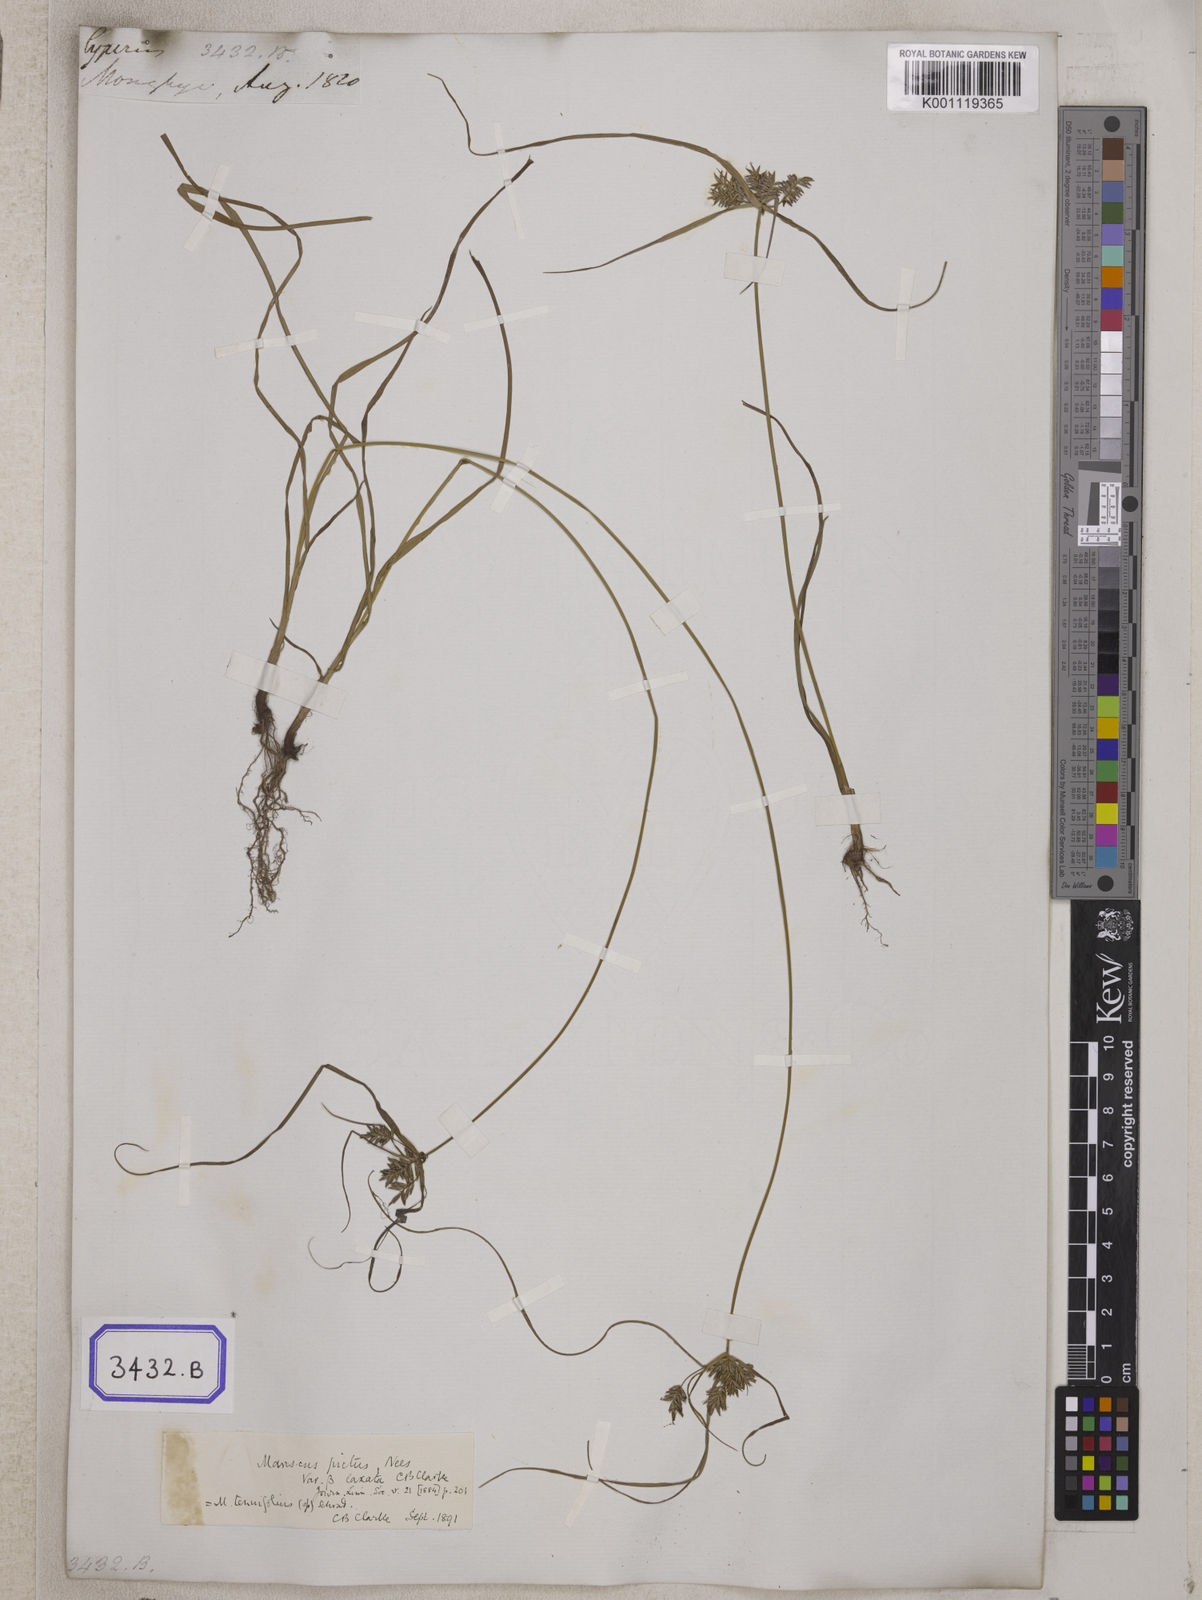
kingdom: Plantae
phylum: Tracheophyta
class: Liliopsida
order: Poales
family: Cyperaceae
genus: Mariscus
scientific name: Mariscus
